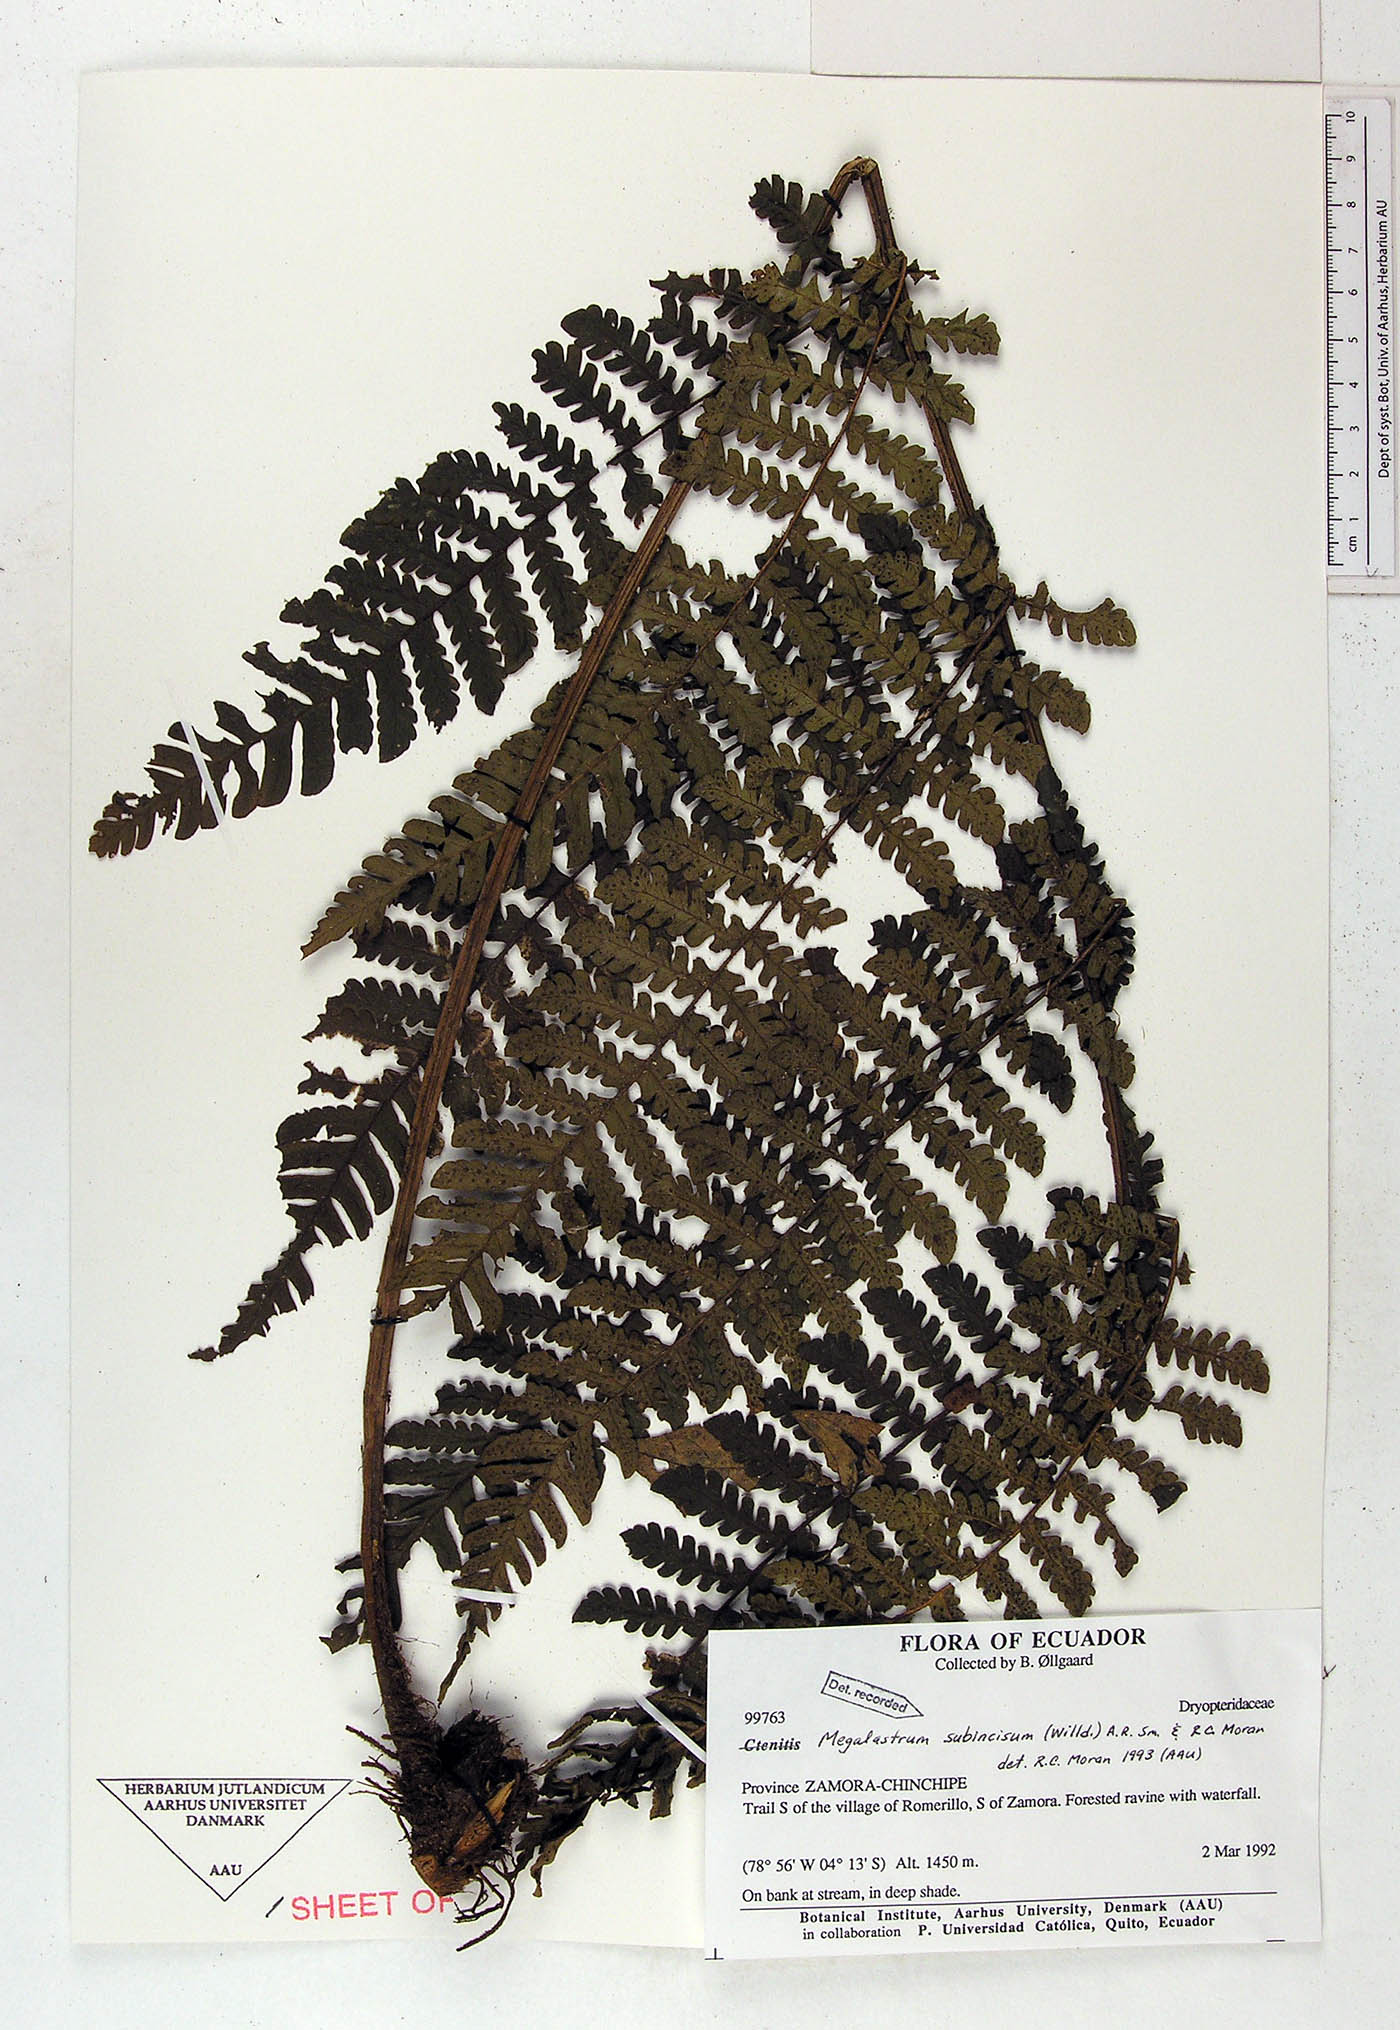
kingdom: Plantae
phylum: Tracheophyta
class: Polypodiopsida
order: Polypodiales
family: Dryopteridaceae
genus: Megalastrum
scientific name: Megalastrum falcatum
